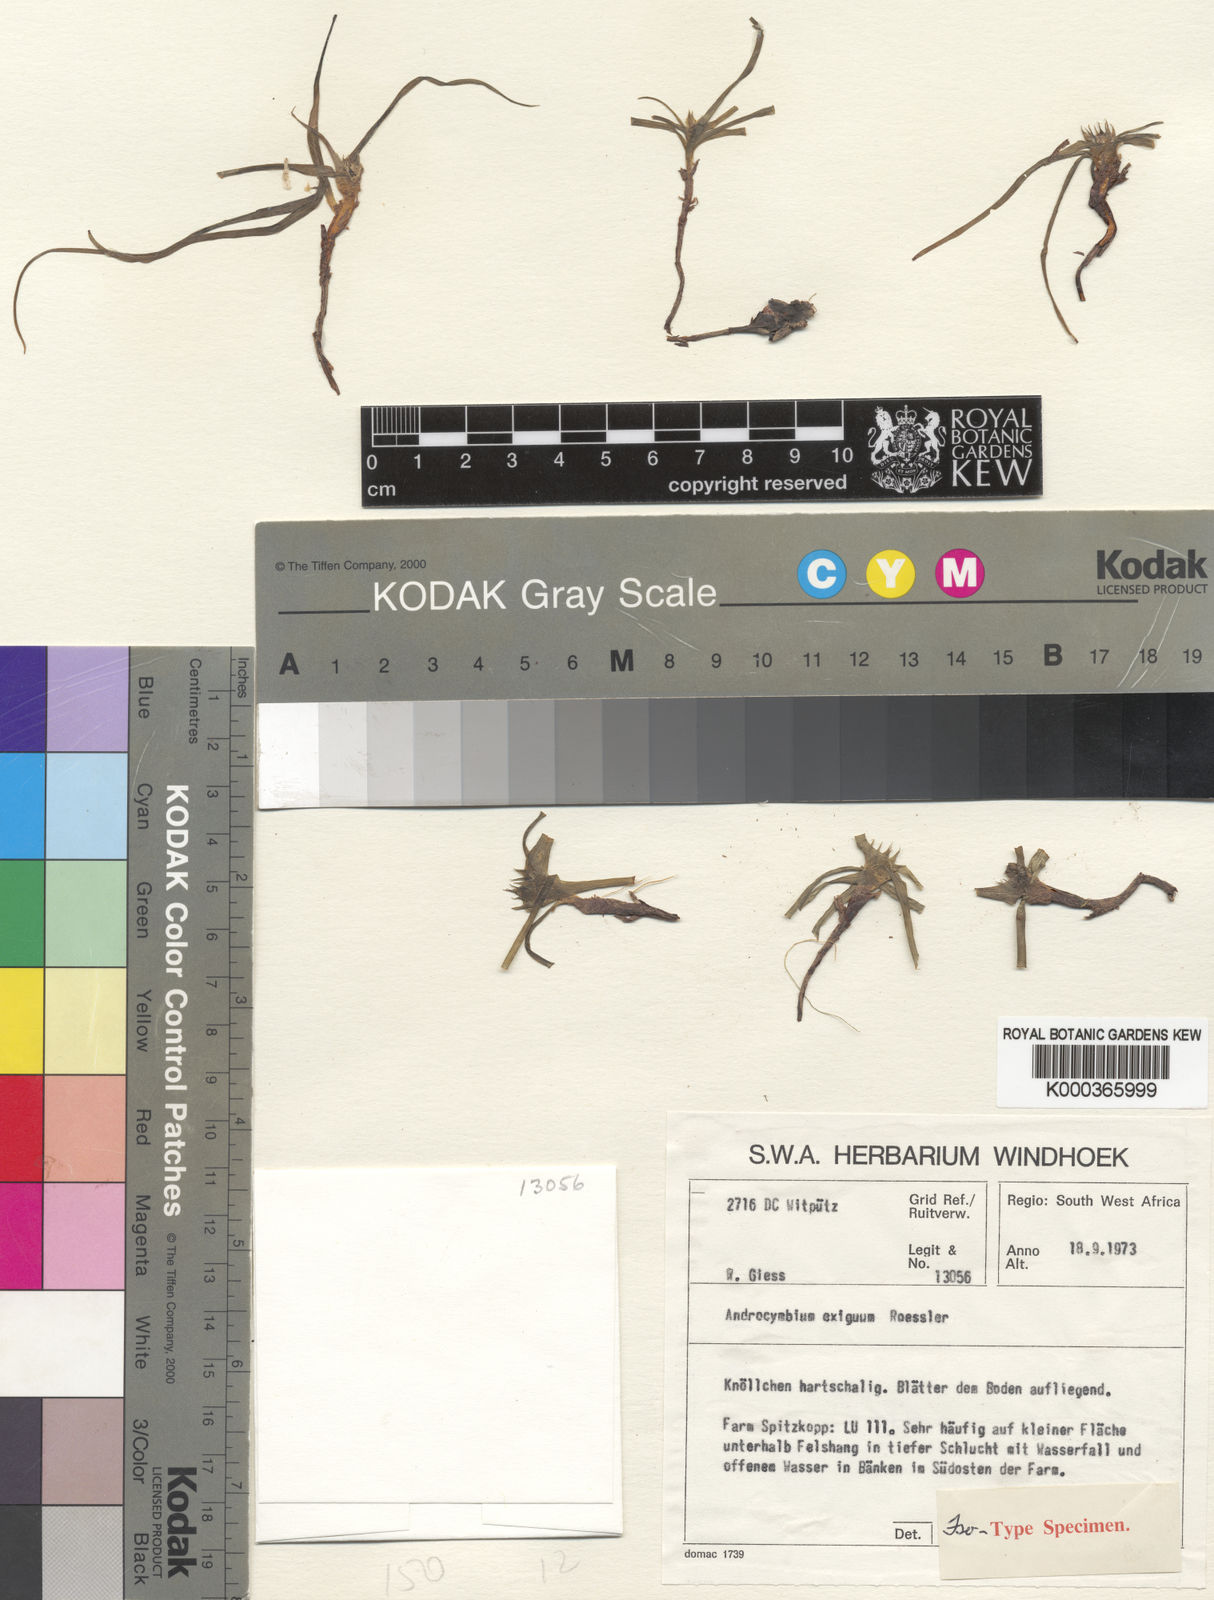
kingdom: Plantae
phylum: Tracheophyta
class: Liliopsida
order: Liliales
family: Colchicaceae
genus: Colchicum
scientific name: Colchicum exiguum
